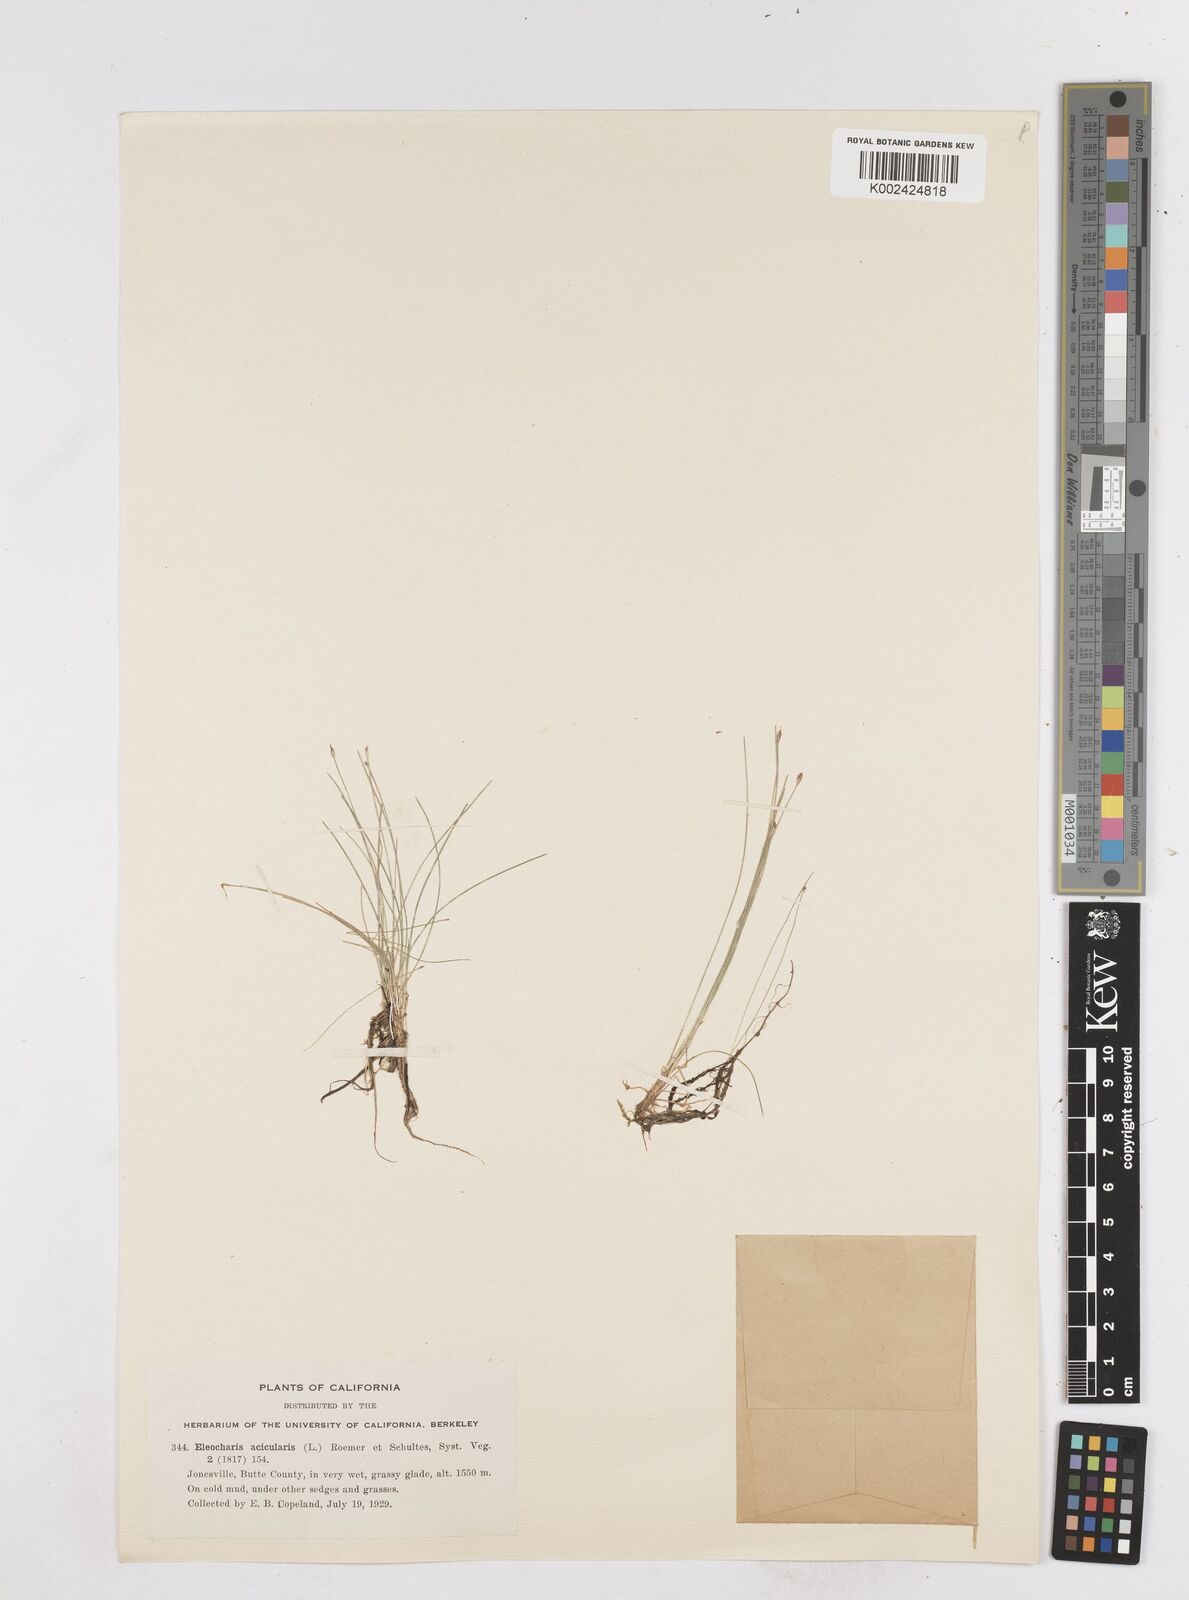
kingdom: Plantae
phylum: Tracheophyta
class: Liliopsida
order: Poales
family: Cyperaceae
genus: Eleocharis
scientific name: Eleocharis acicularis
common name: Needle spike-rush
